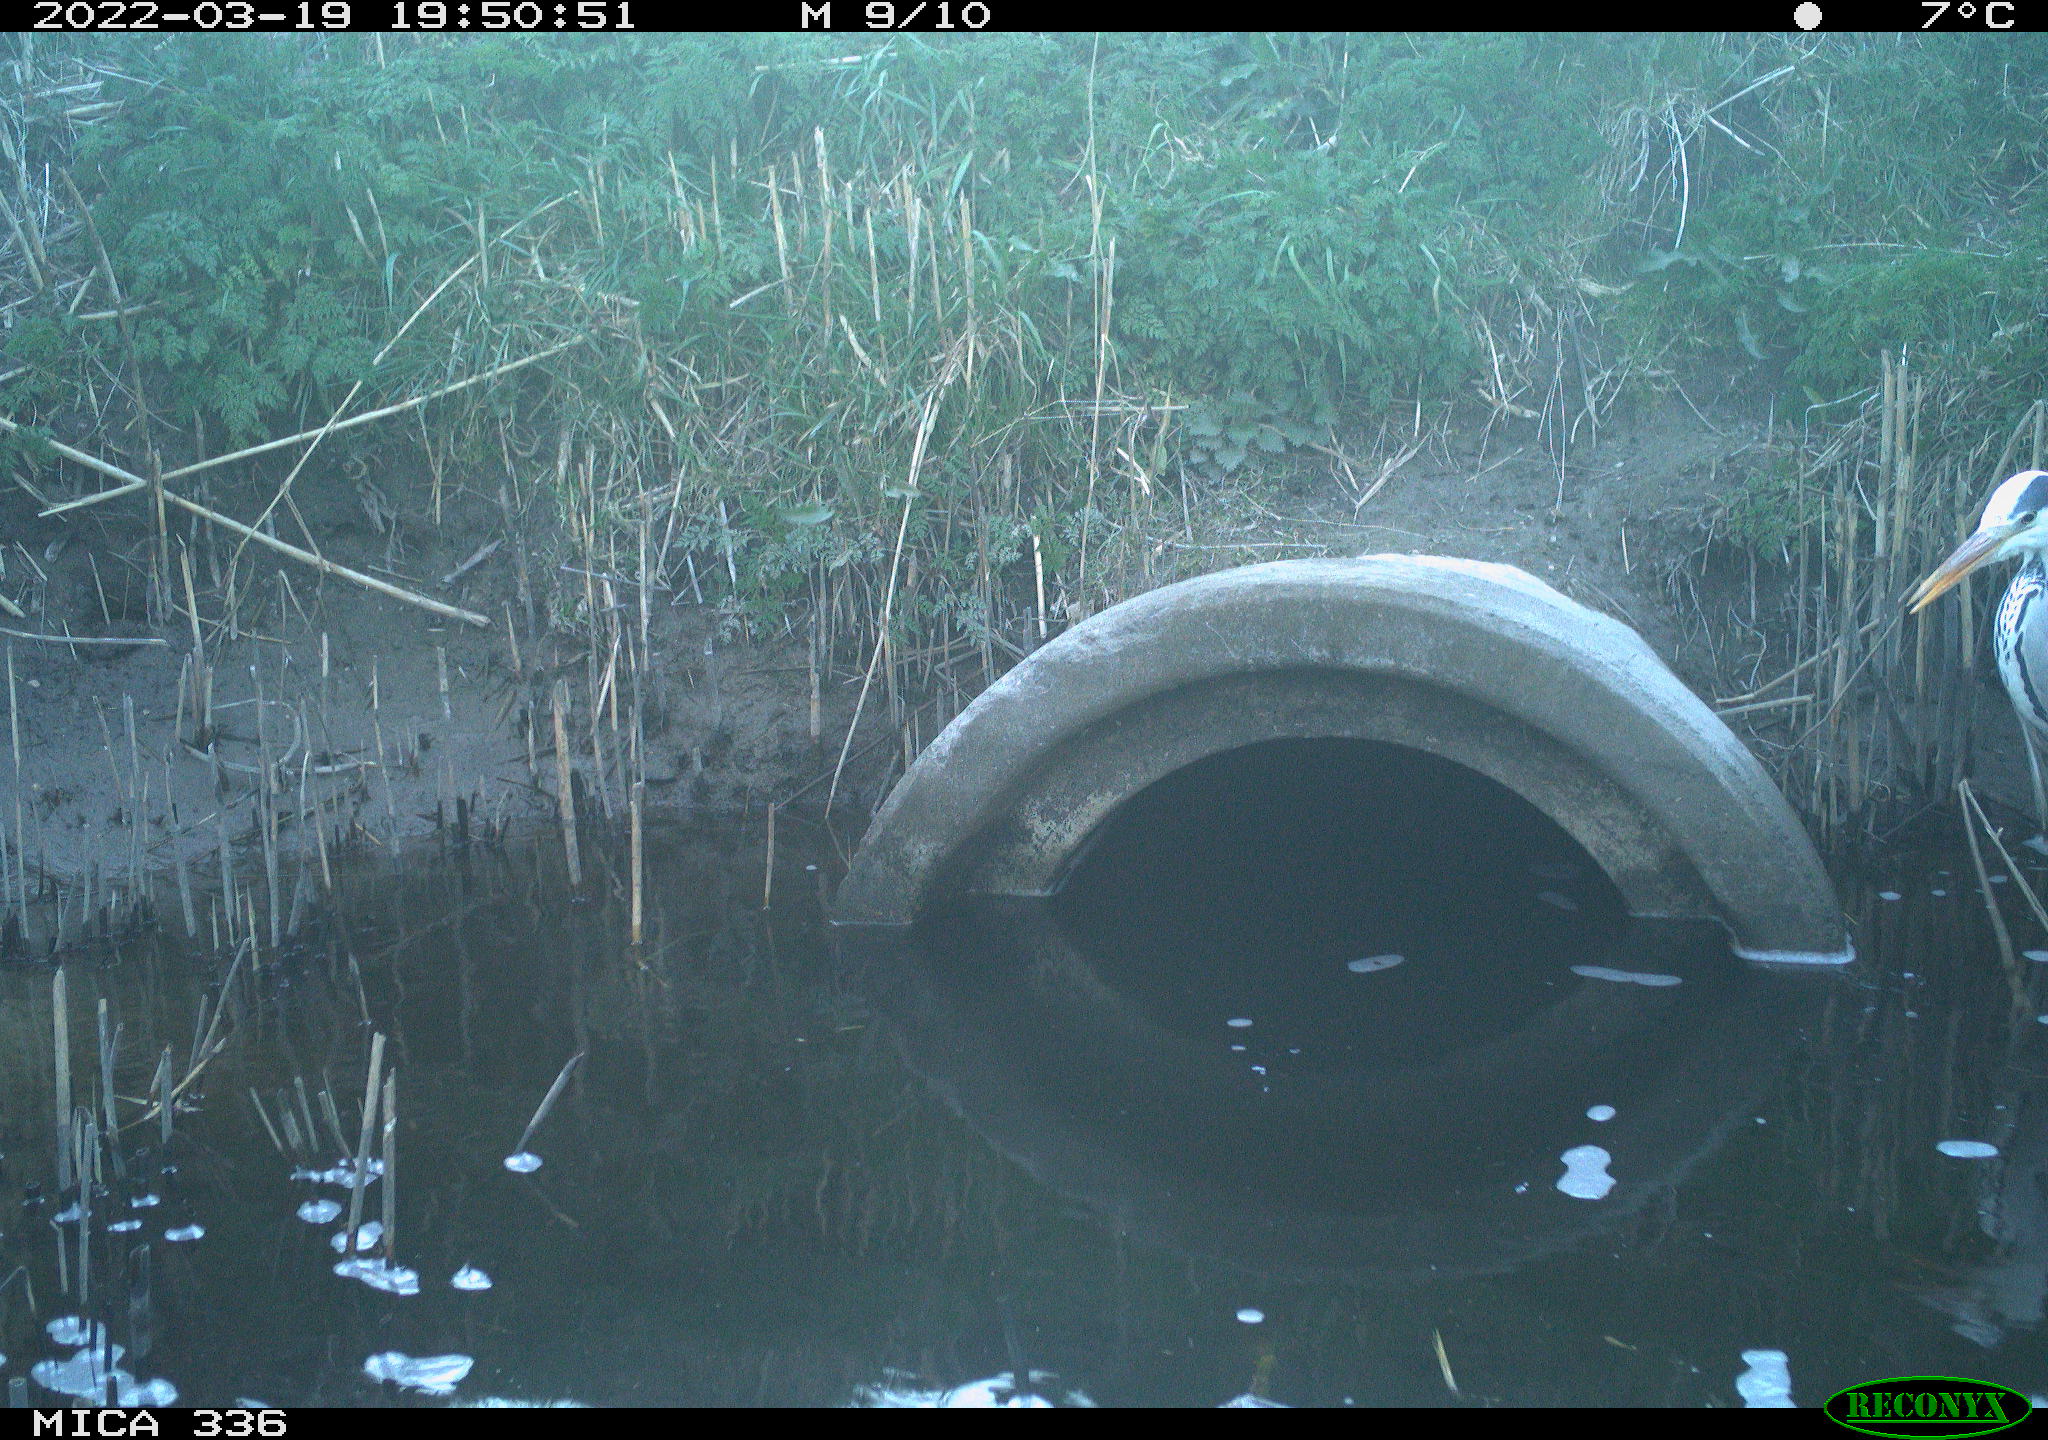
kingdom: Animalia
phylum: Chordata
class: Aves
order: Pelecaniformes
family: Ardeidae
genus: Ardea
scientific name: Ardea cinerea
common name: Grey heron
